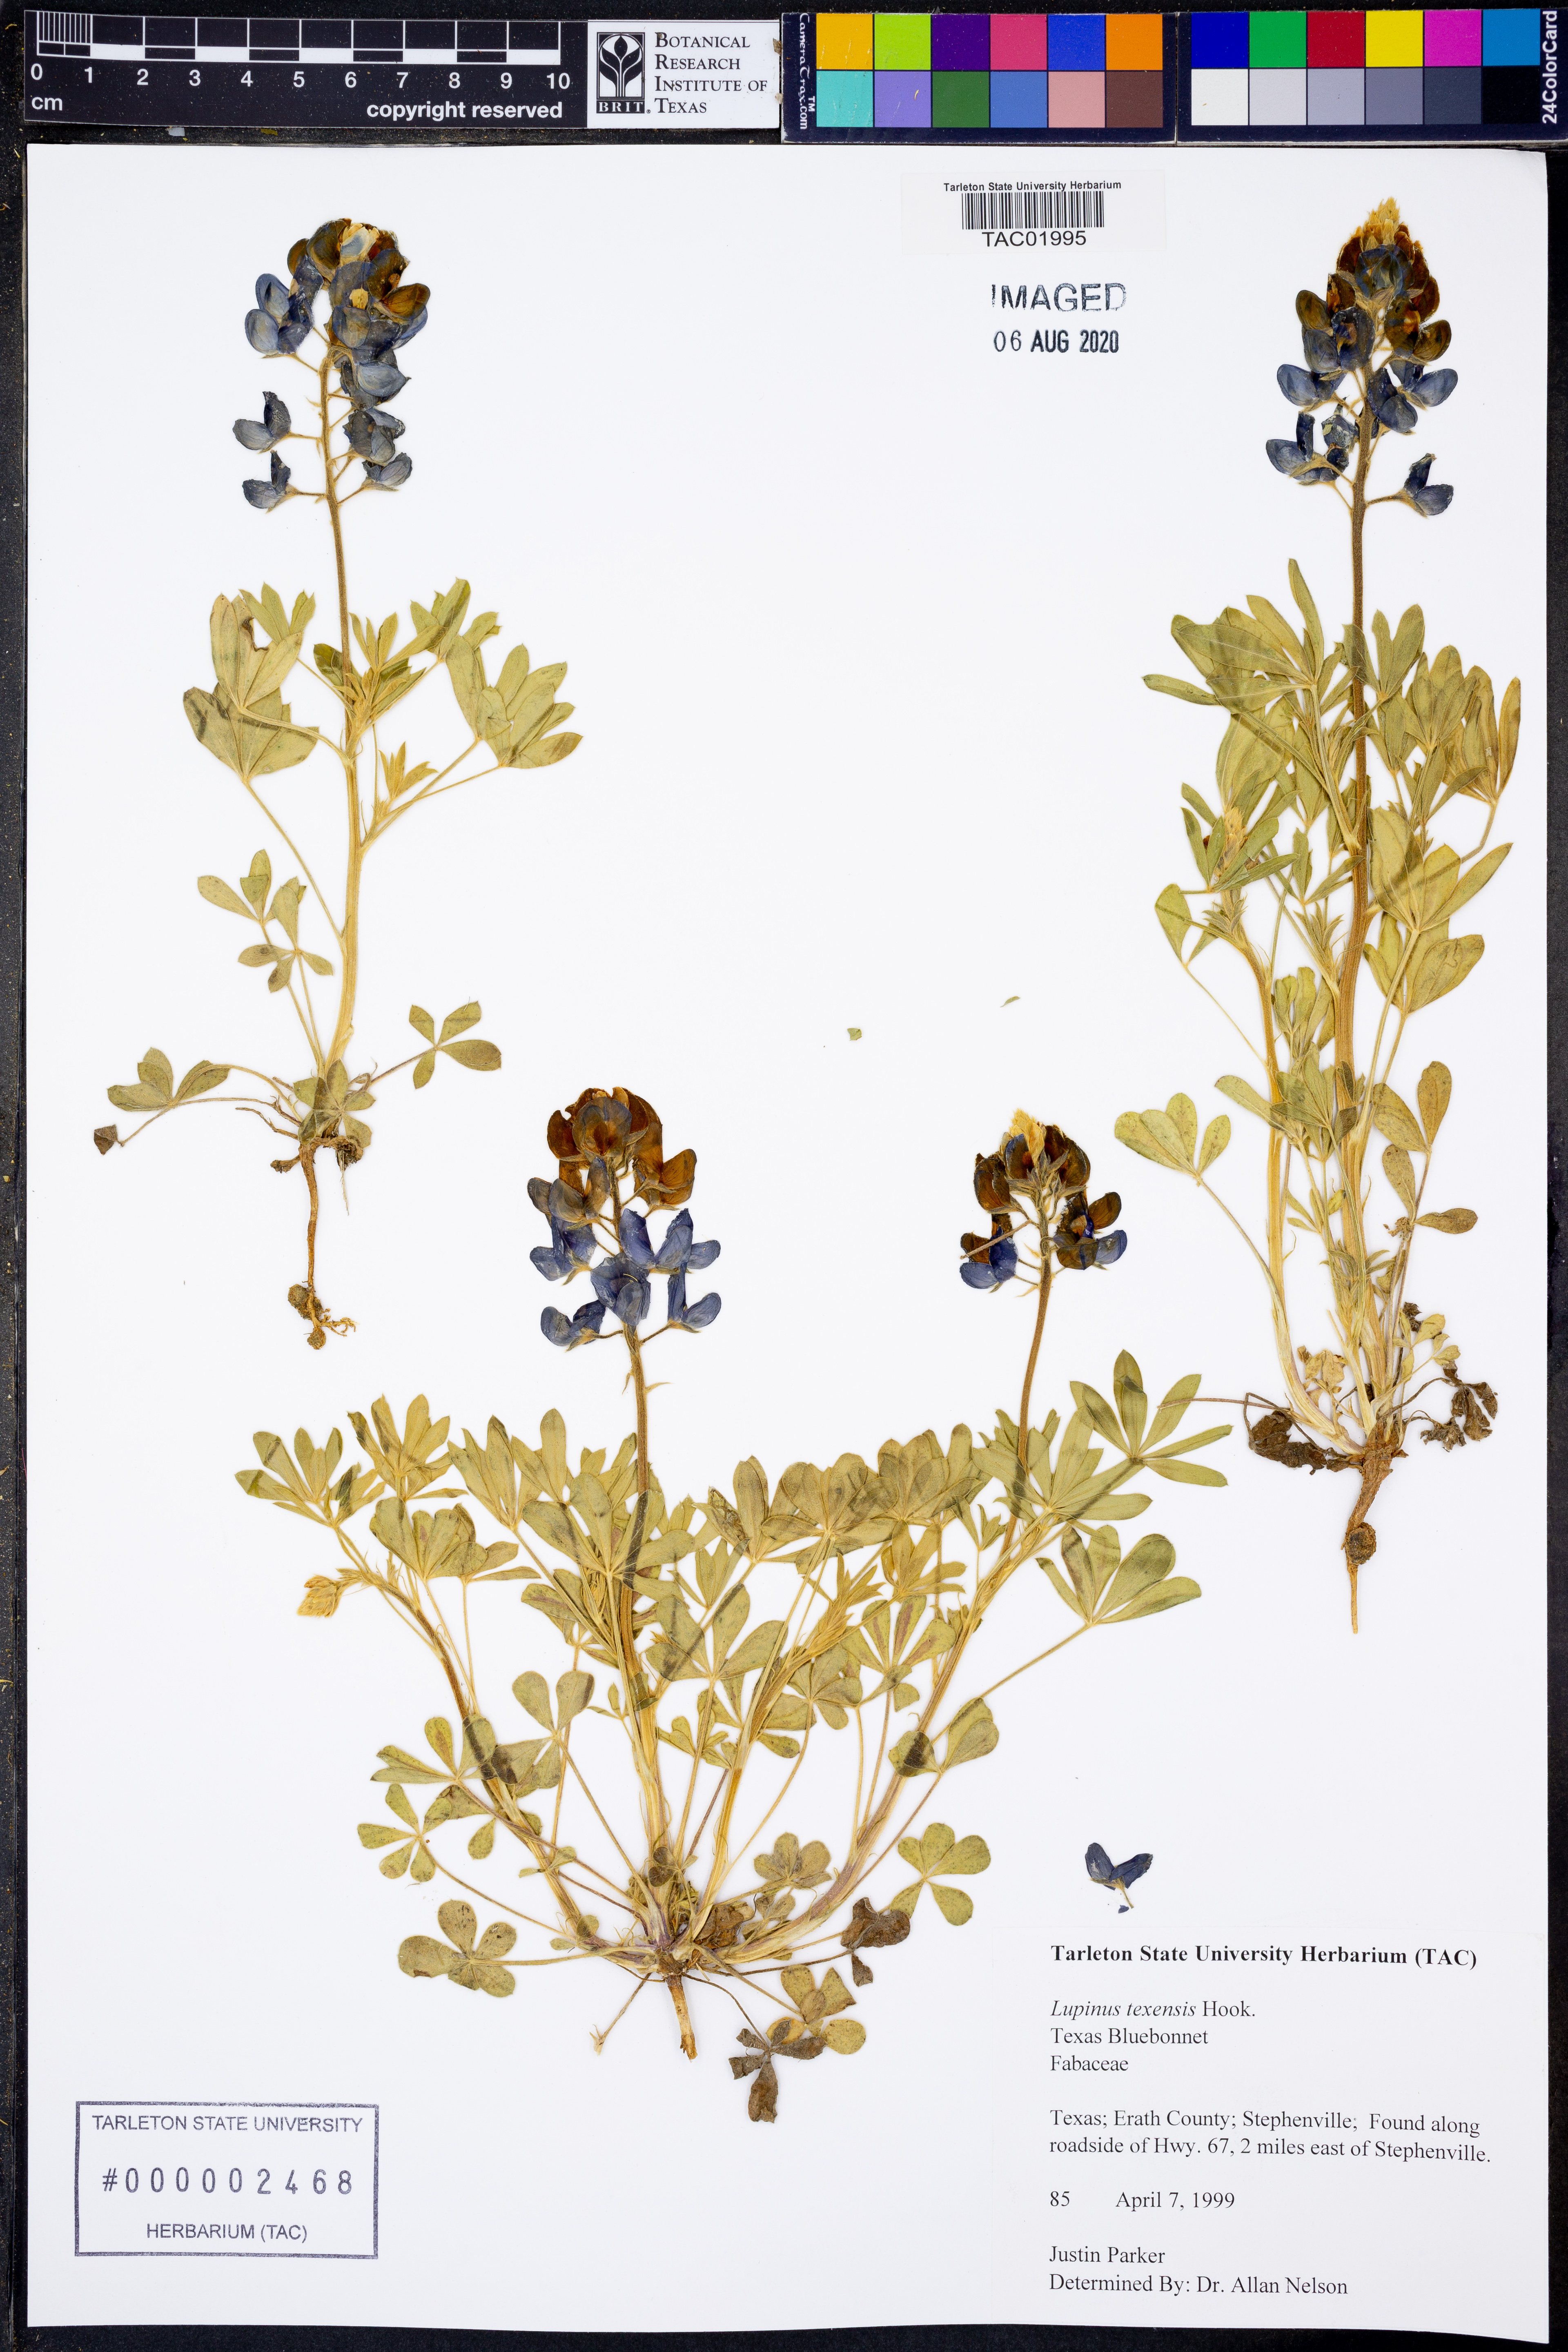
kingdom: Plantae
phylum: Tracheophyta
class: Magnoliopsida
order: Fabales
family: Fabaceae
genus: Lupinus
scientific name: Lupinus texensis
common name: Texas bluebonnet
